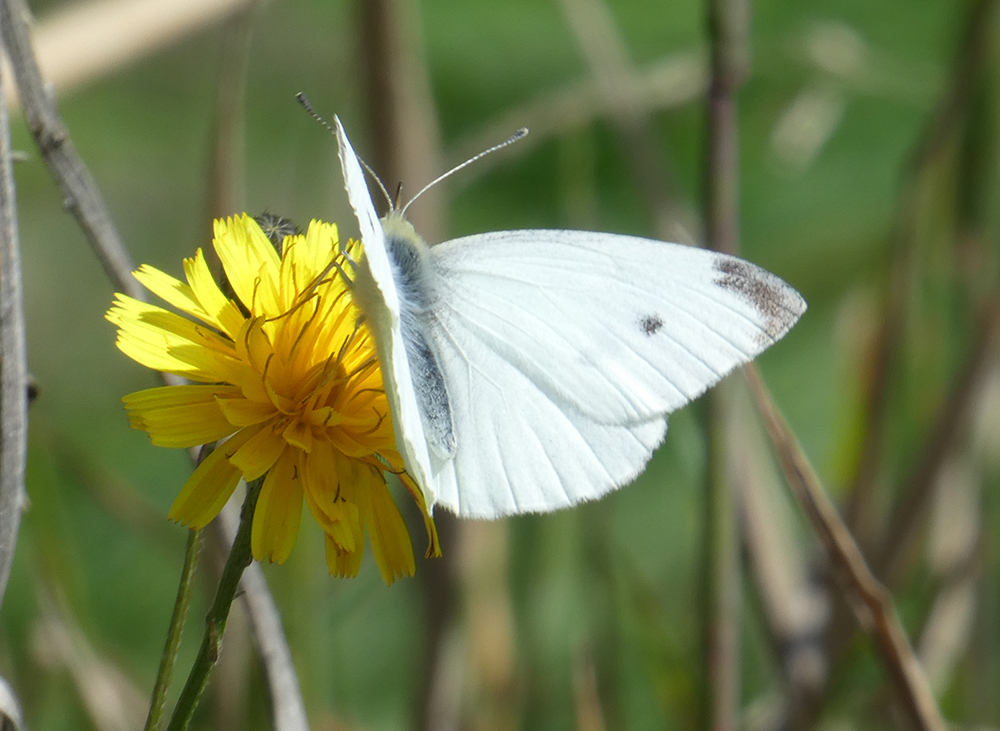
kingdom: Animalia
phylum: Arthropoda
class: Insecta
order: Lepidoptera
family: Pieridae
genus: Pieris
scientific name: Pieris rapae
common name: Small white
